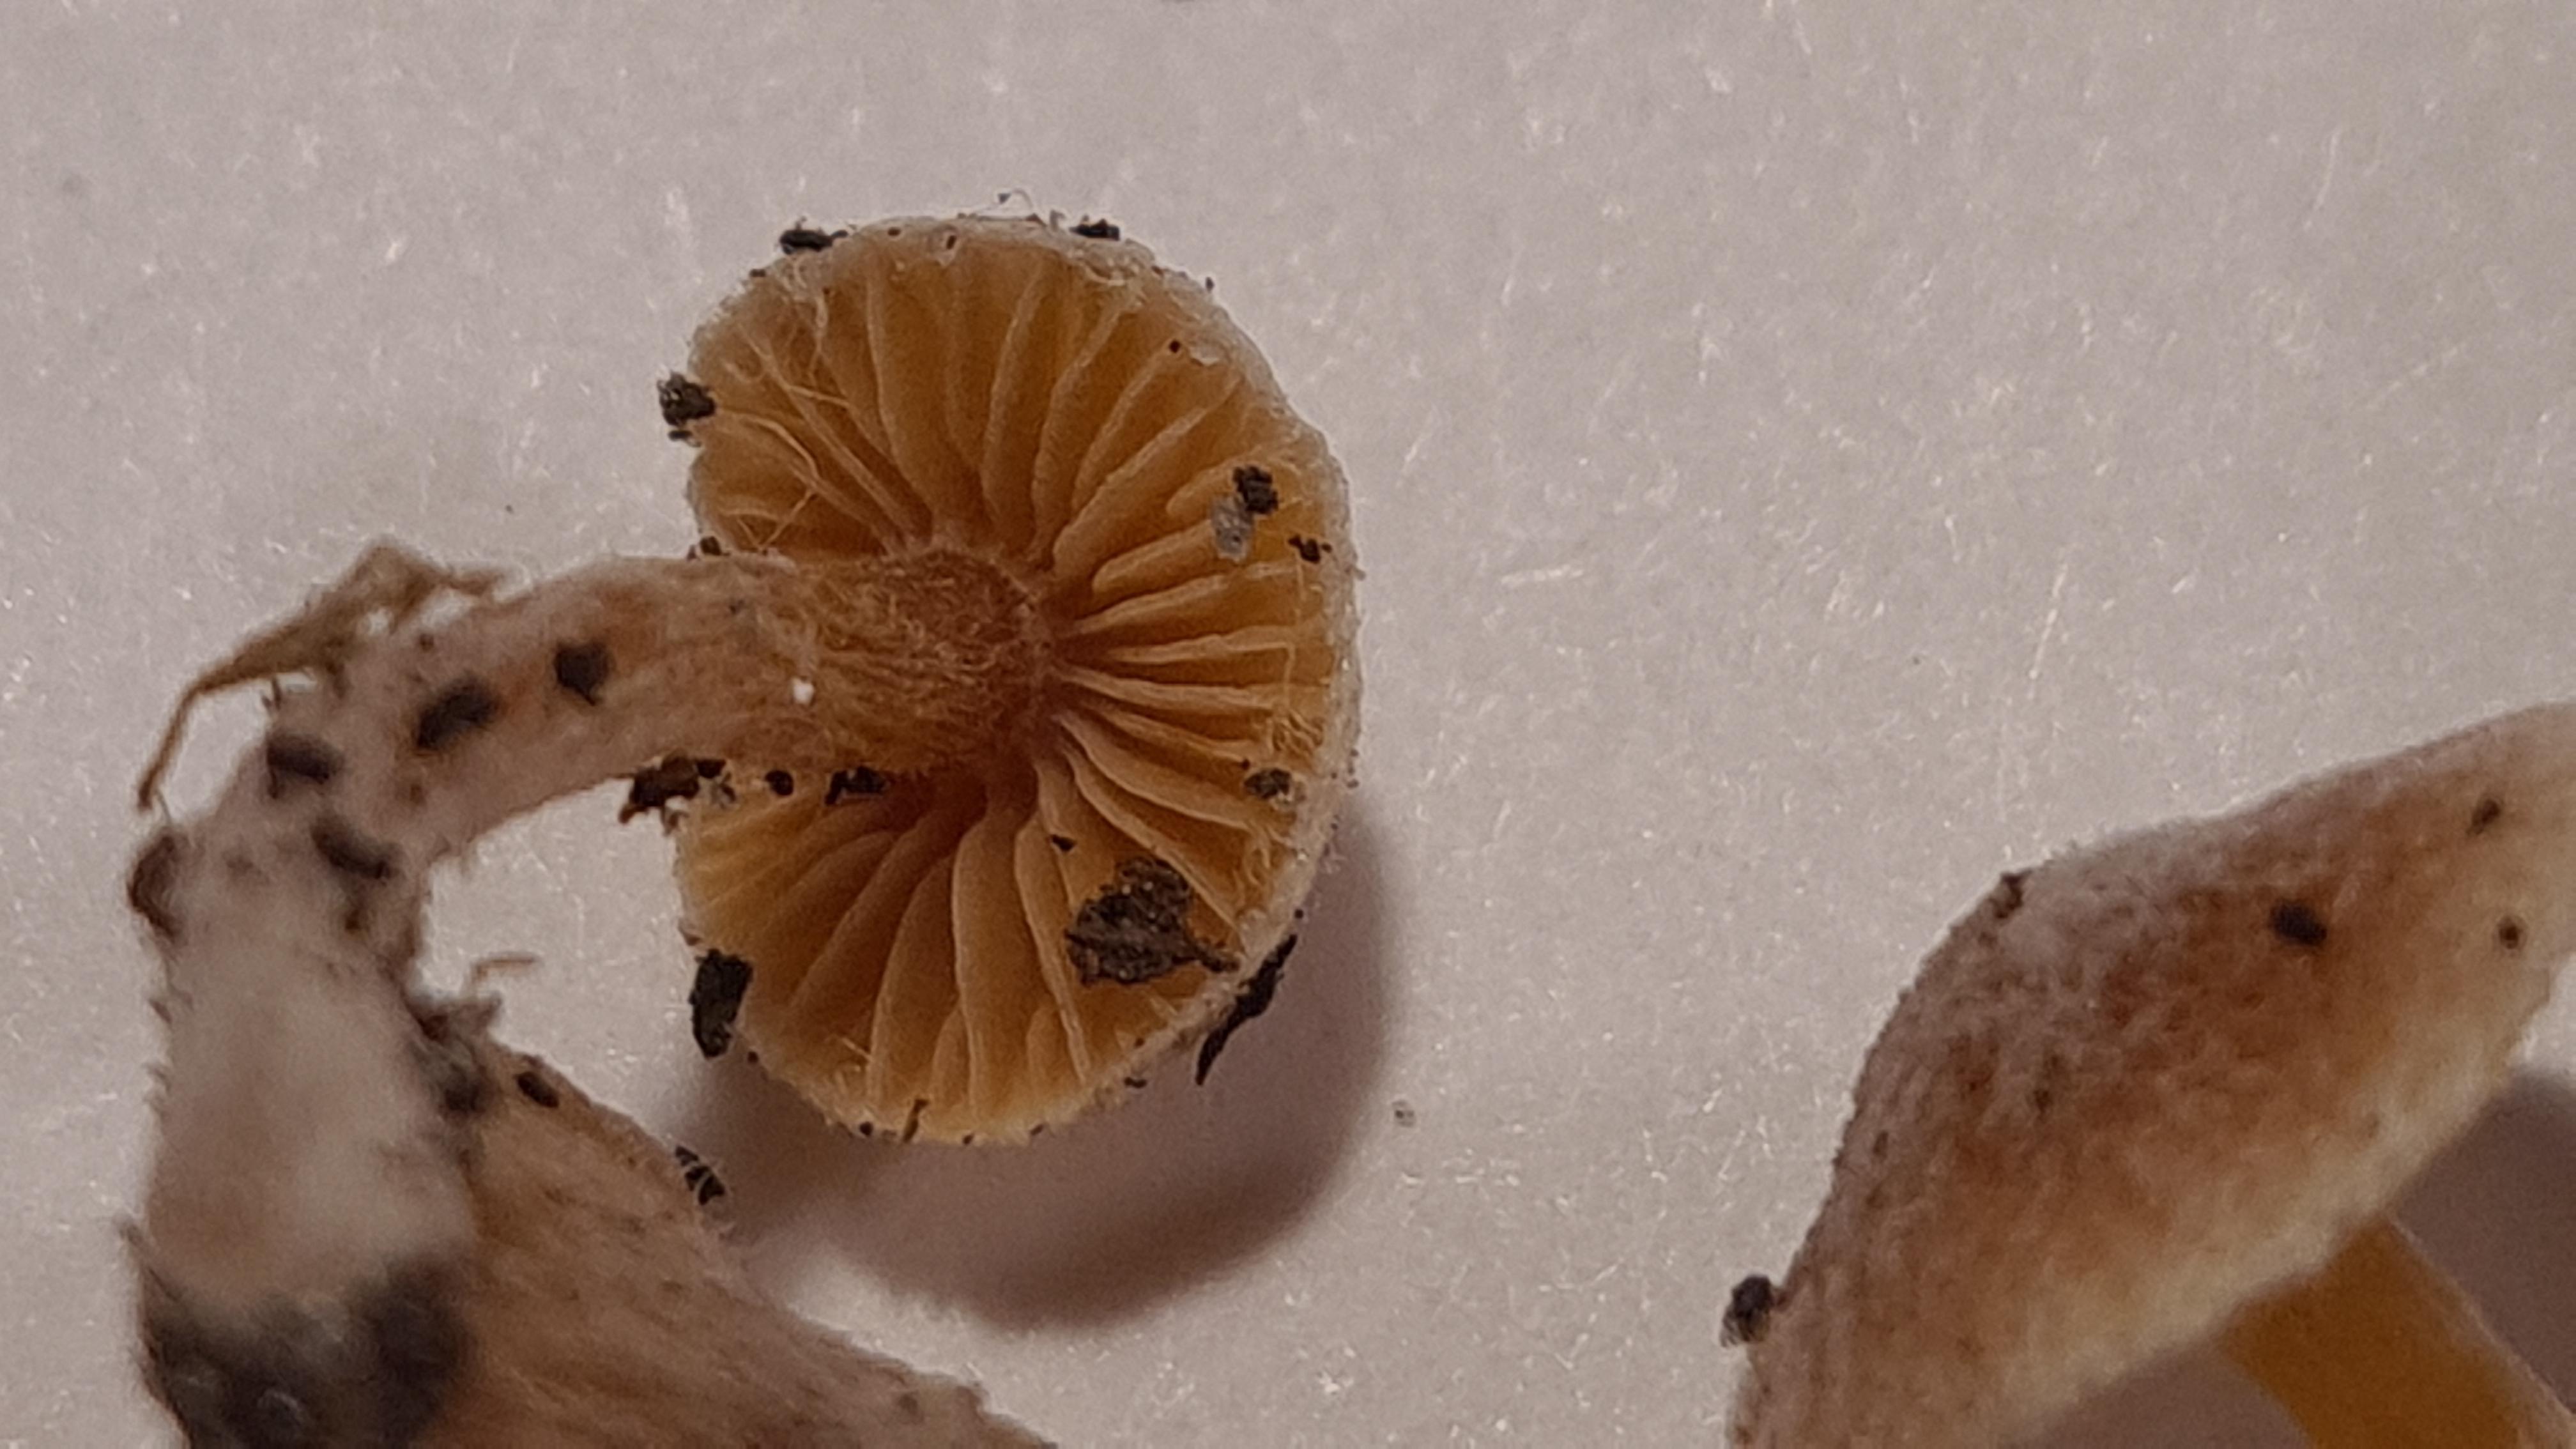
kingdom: Fungi
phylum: Basidiomycota
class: Agaricomycetes
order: Agaricales
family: Tubariaceae
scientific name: Tubariaceae
